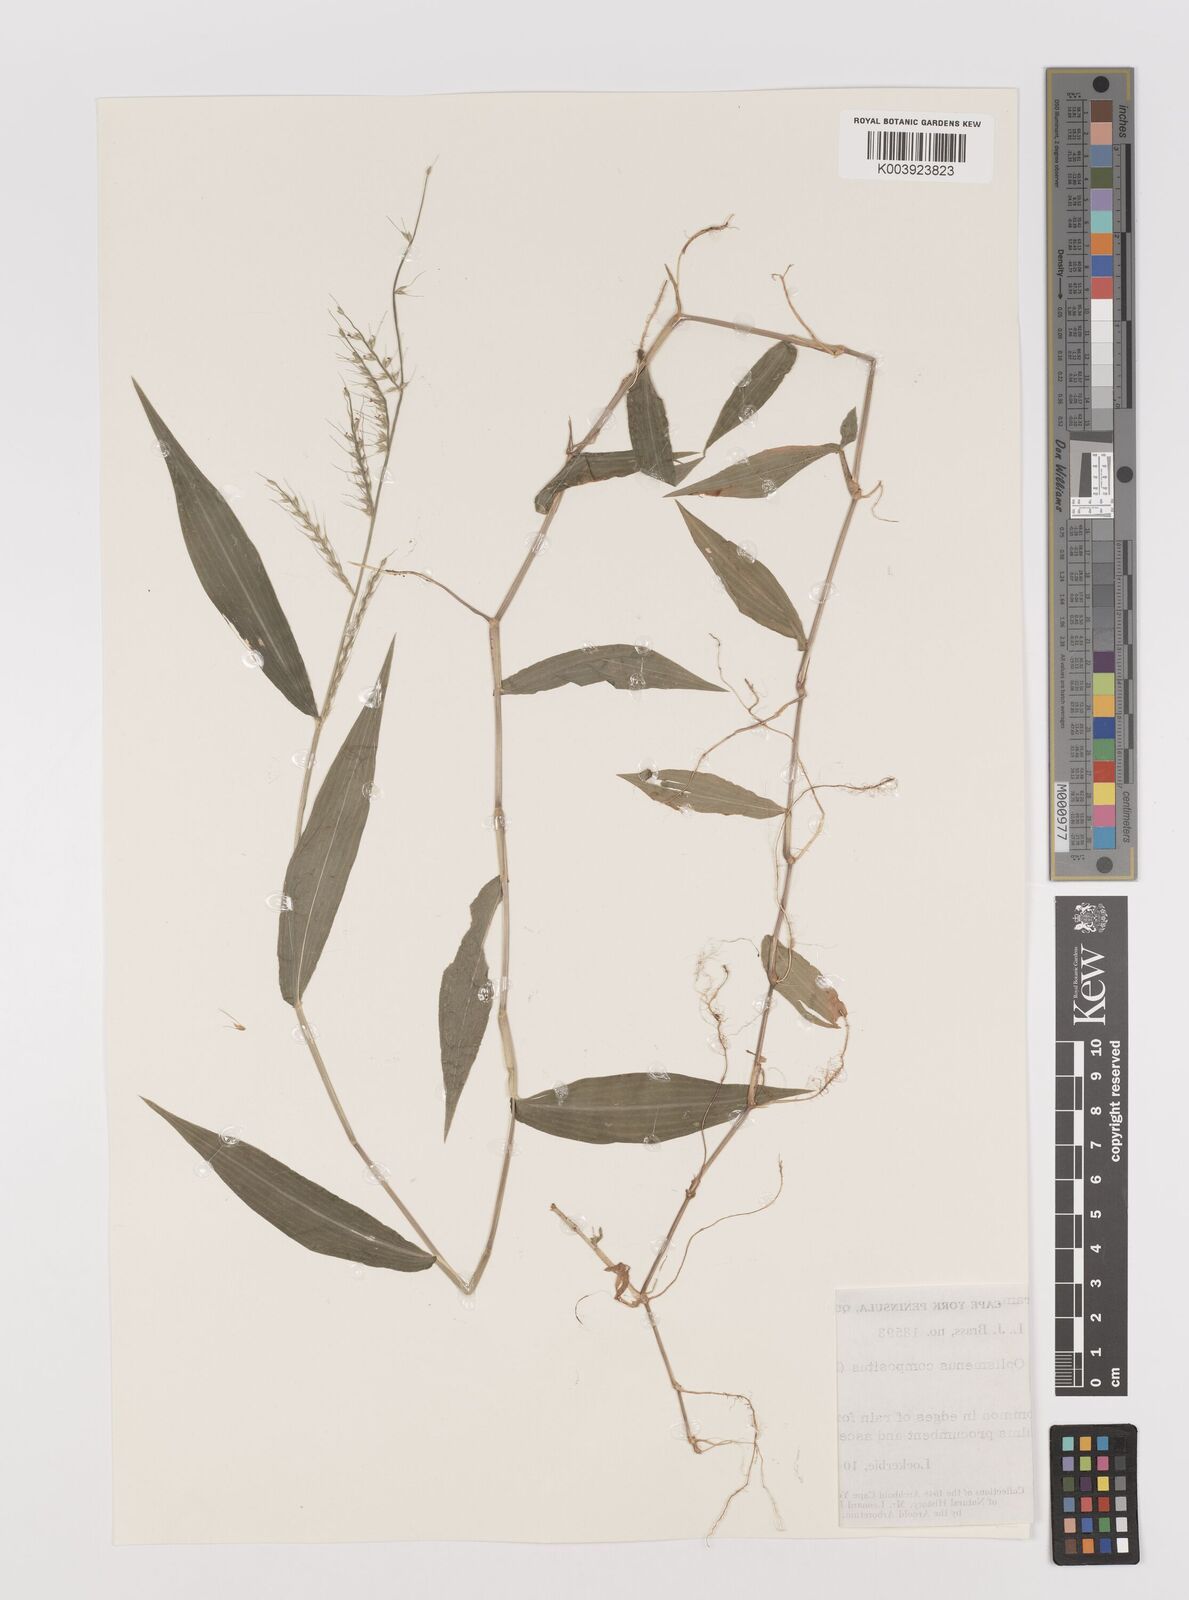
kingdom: Plantae
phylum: Tracheophyta
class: Liliopsida
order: Poales
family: Poaceae
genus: Oplismenus
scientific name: Oplismenus compositus
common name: Running mountain grass
